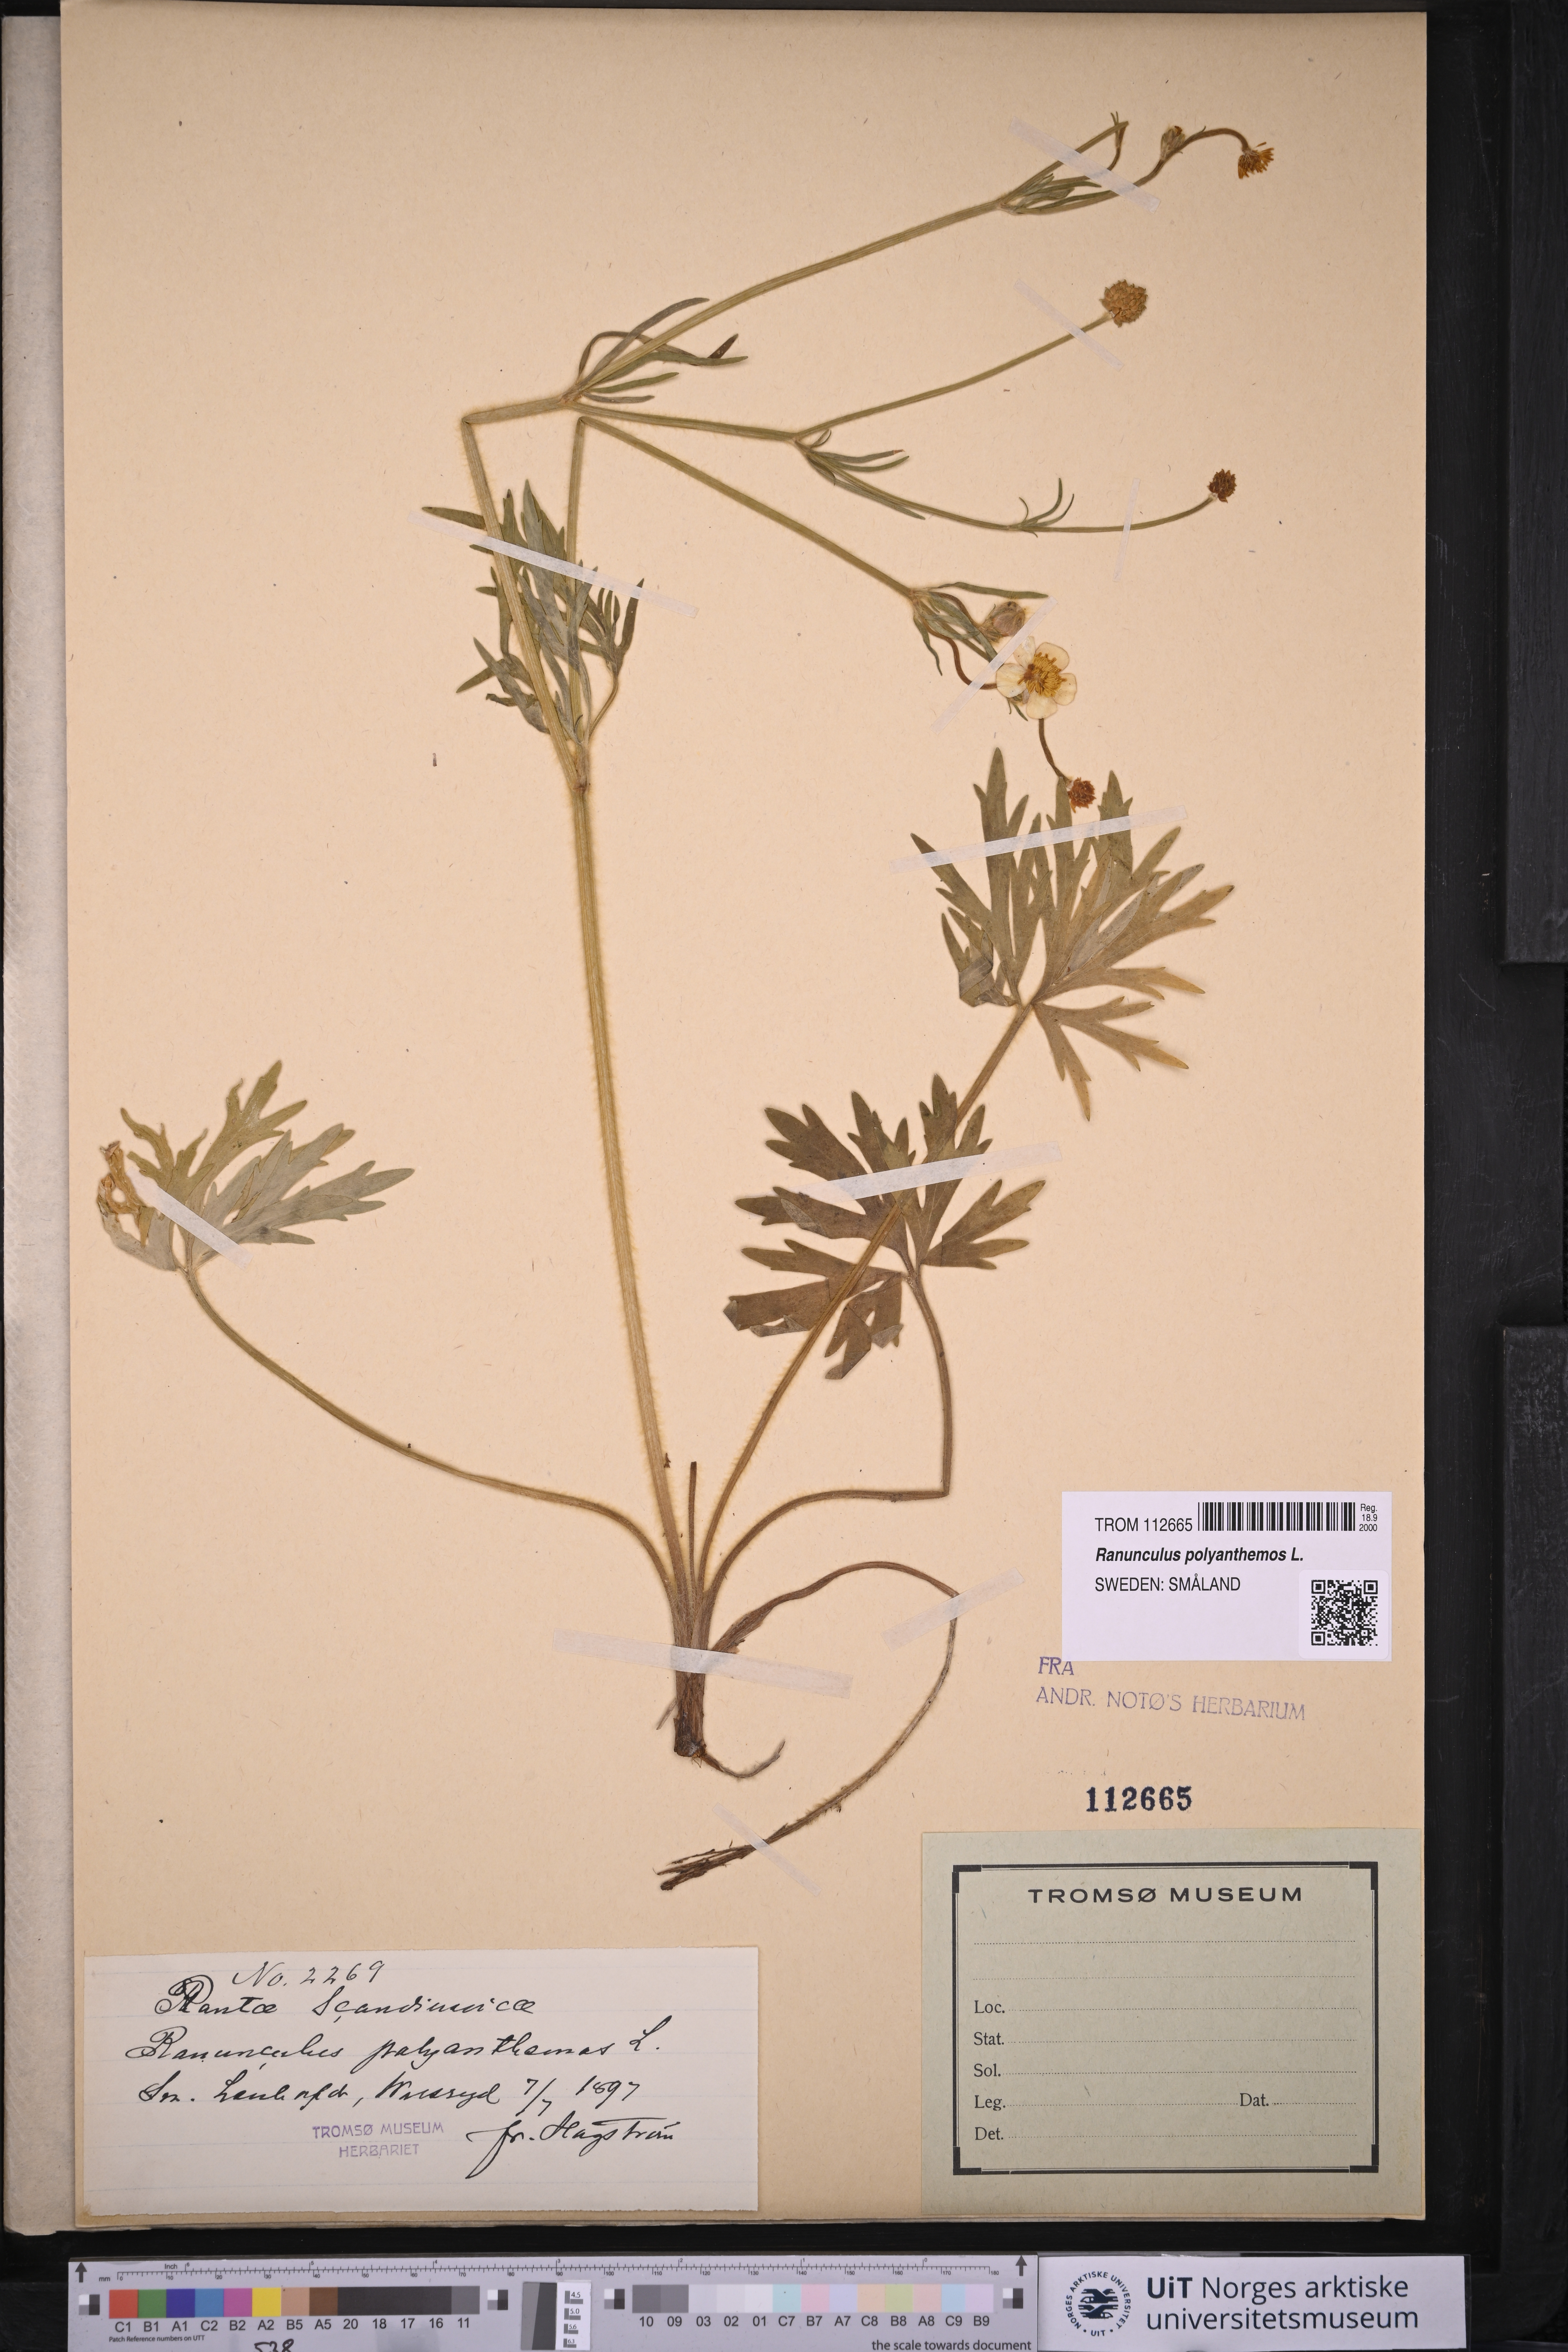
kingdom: Plantae
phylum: Tracheophyta
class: Magnoliopsida
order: Ranunculales
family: Ranunculaceae
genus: Ranunculus
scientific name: Ranunculus polyanthemos
